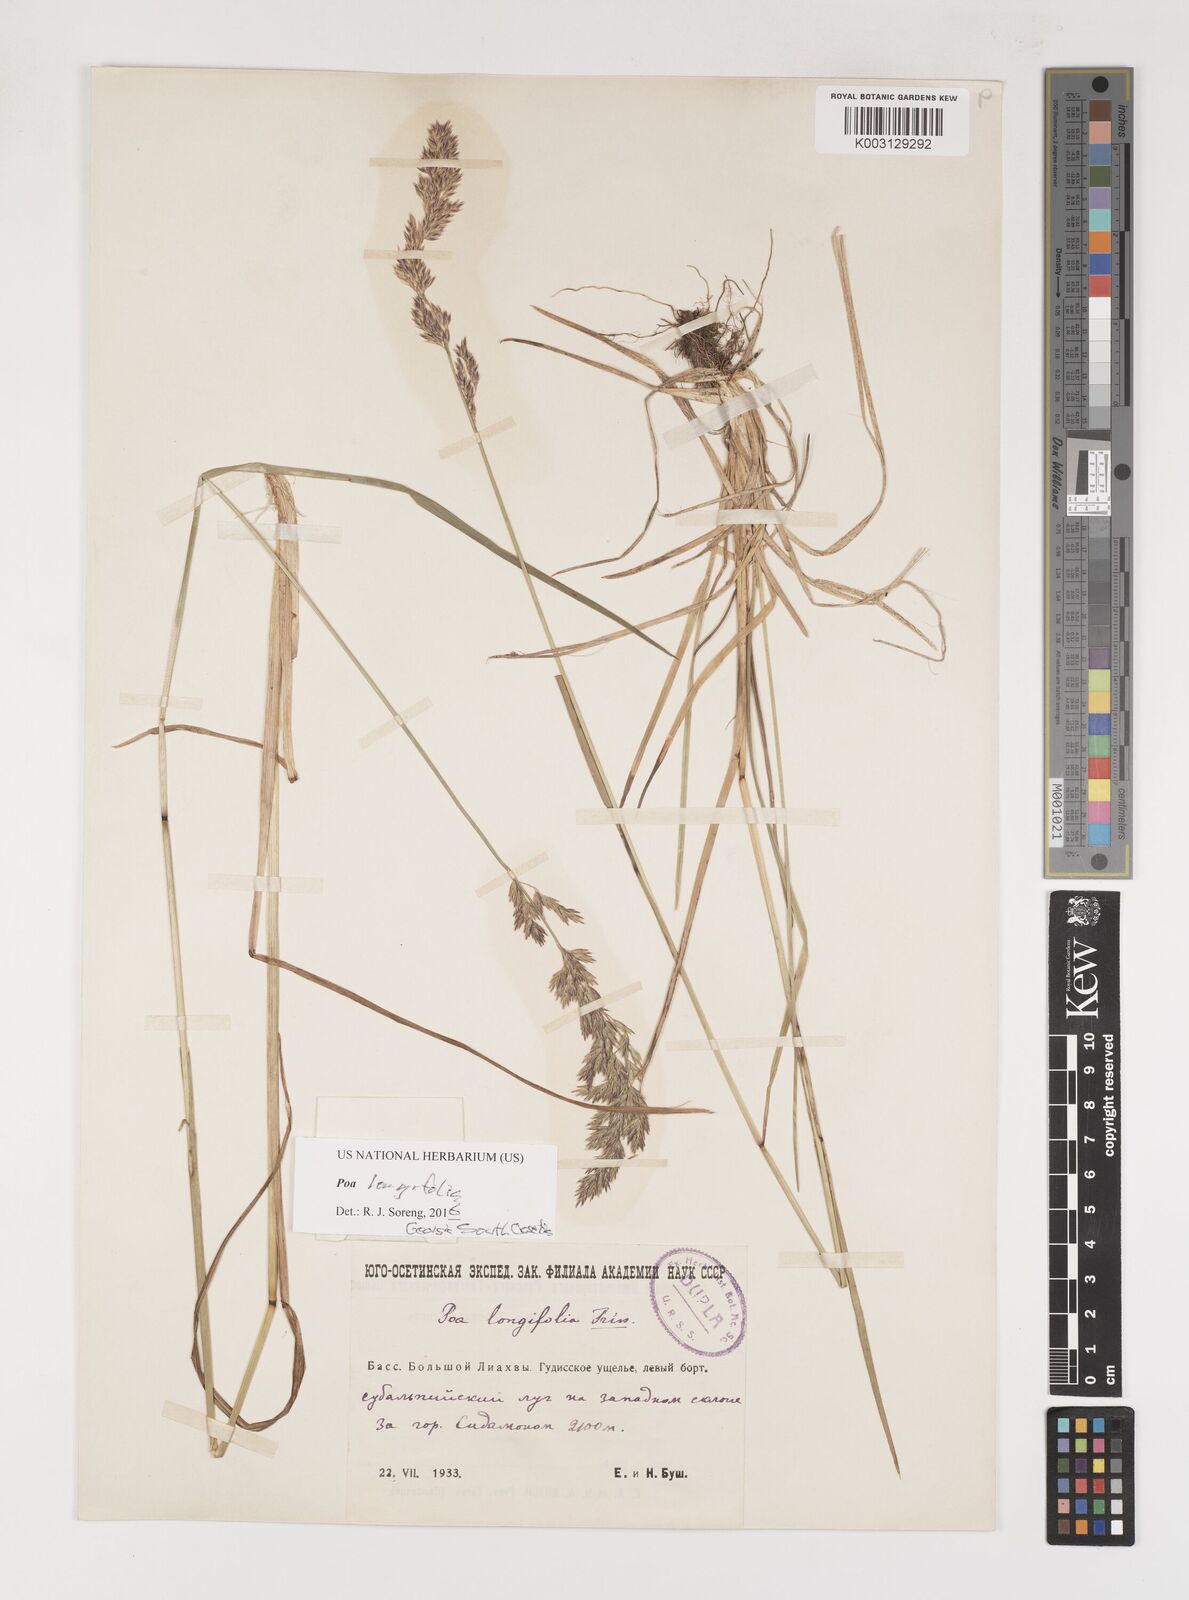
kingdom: Plantae
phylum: Tracheophyta
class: Liliopsida
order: Poales
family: Poaceae
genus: Poa
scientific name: Poa longifolia
